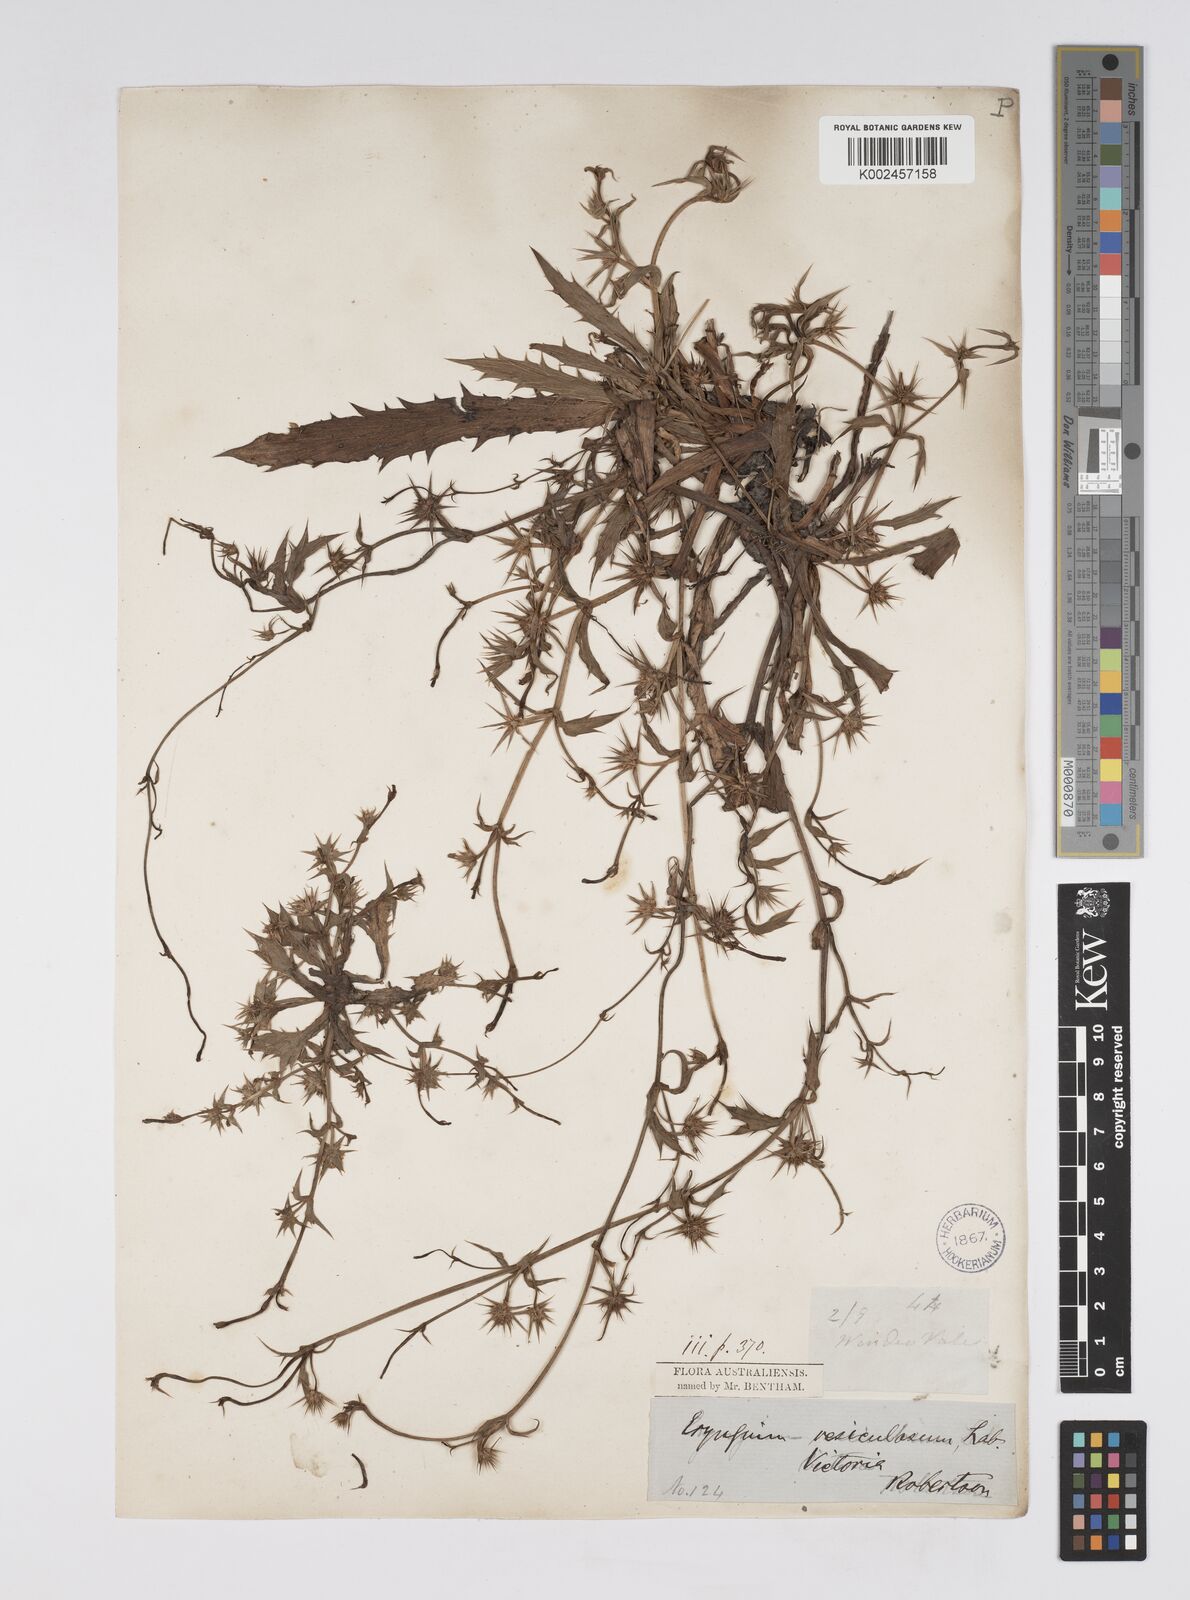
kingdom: Plantae
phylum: Tracheophyta
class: Magnoliopsida
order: Apiales
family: Apiaceae
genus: Eryngium
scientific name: Eryngium vesiculosum
